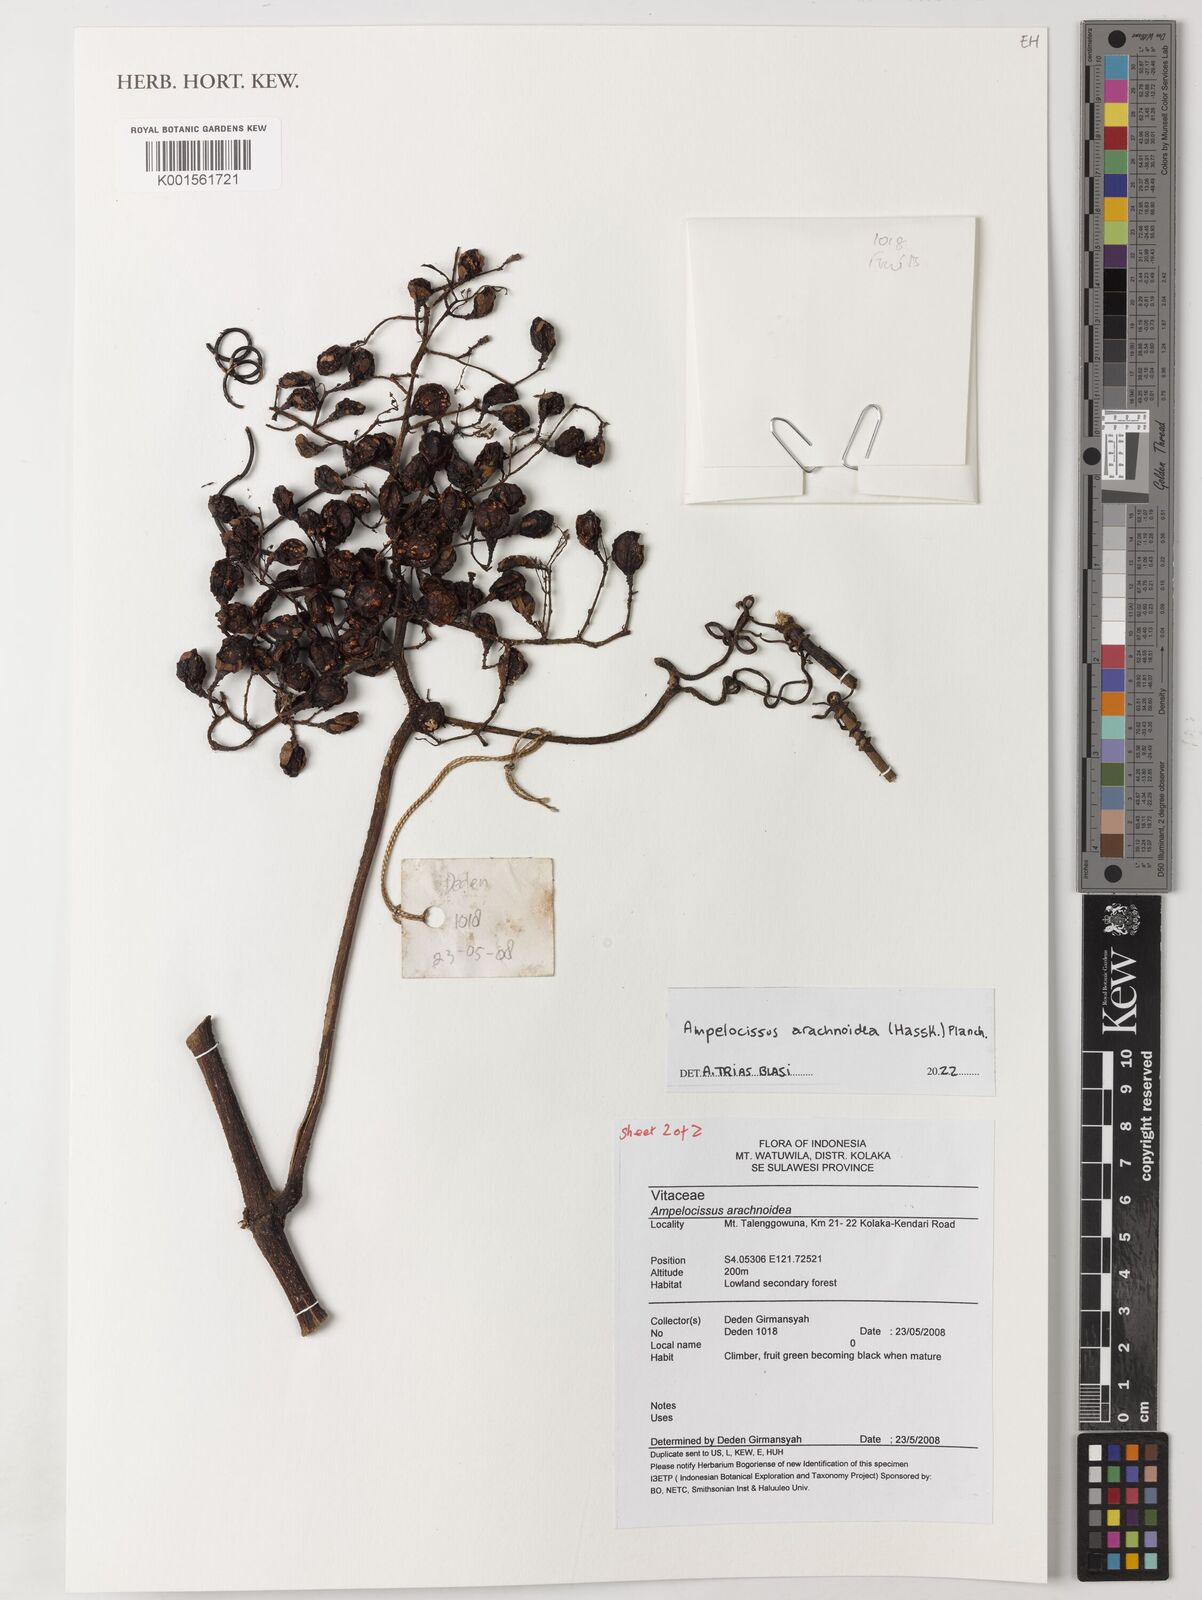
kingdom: Plantae
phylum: Tracheophyta
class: Magnoliopsida
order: Vitales
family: Vitaceae
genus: Ampelocissus
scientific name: Ampelocissus arachnoidea
